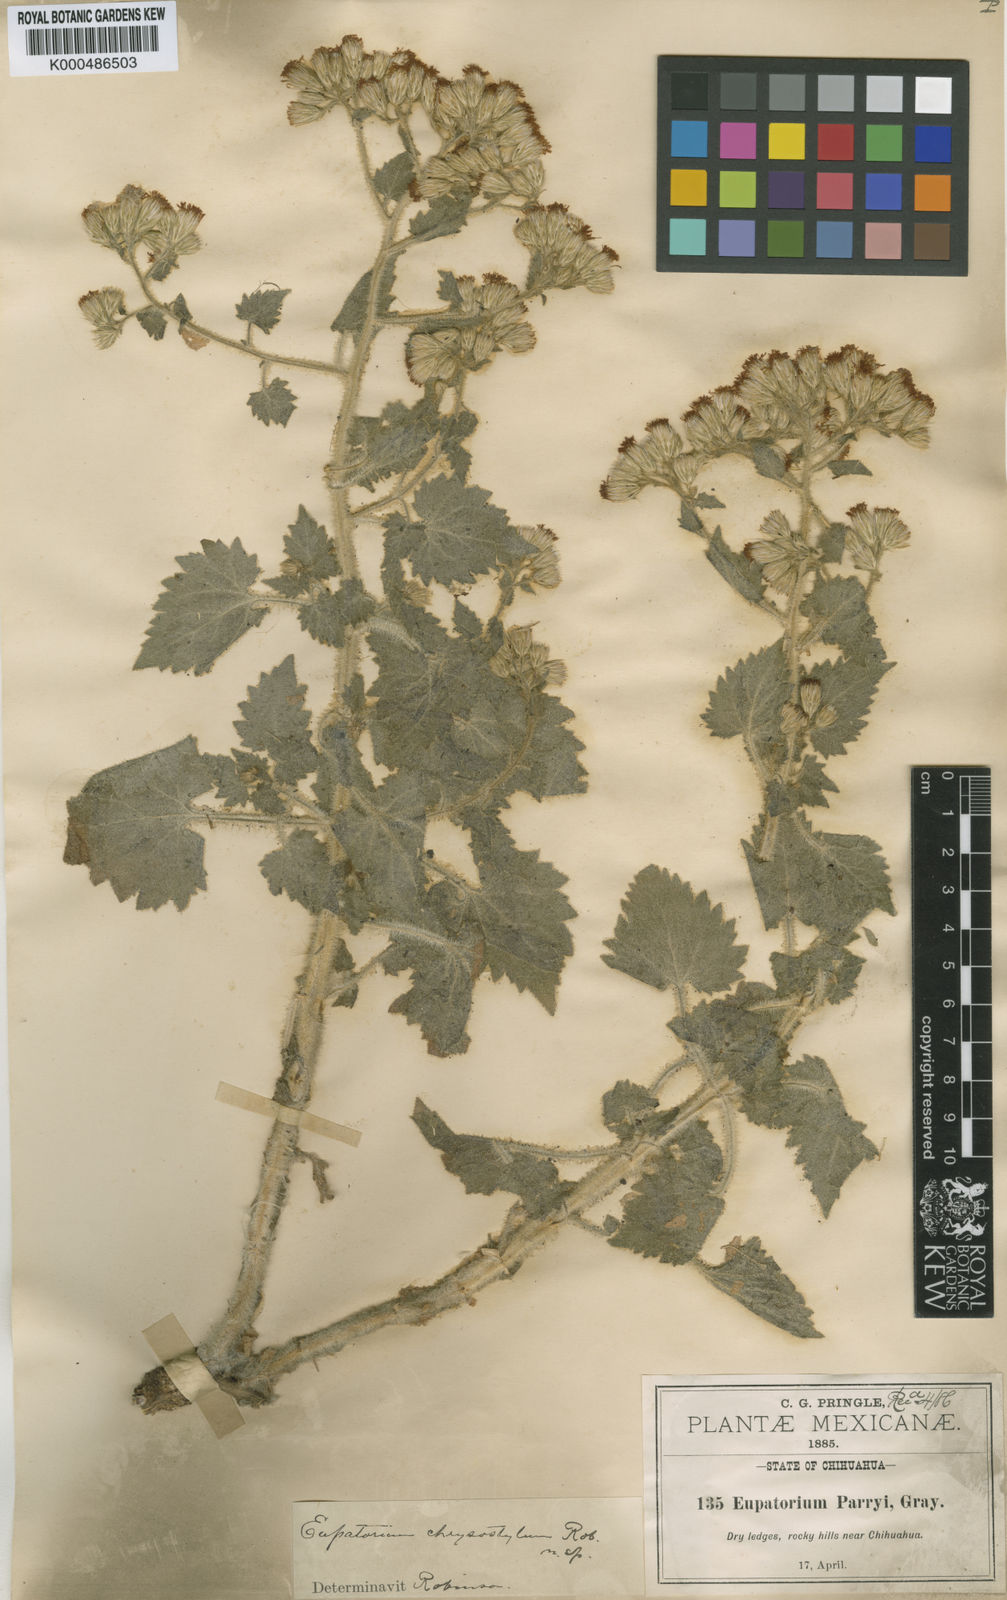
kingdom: Plantae
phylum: Tracheophyta
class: Magnoliopsida
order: Asterales
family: Asteraceae
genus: Flyriella
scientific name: Flyriella parryi
